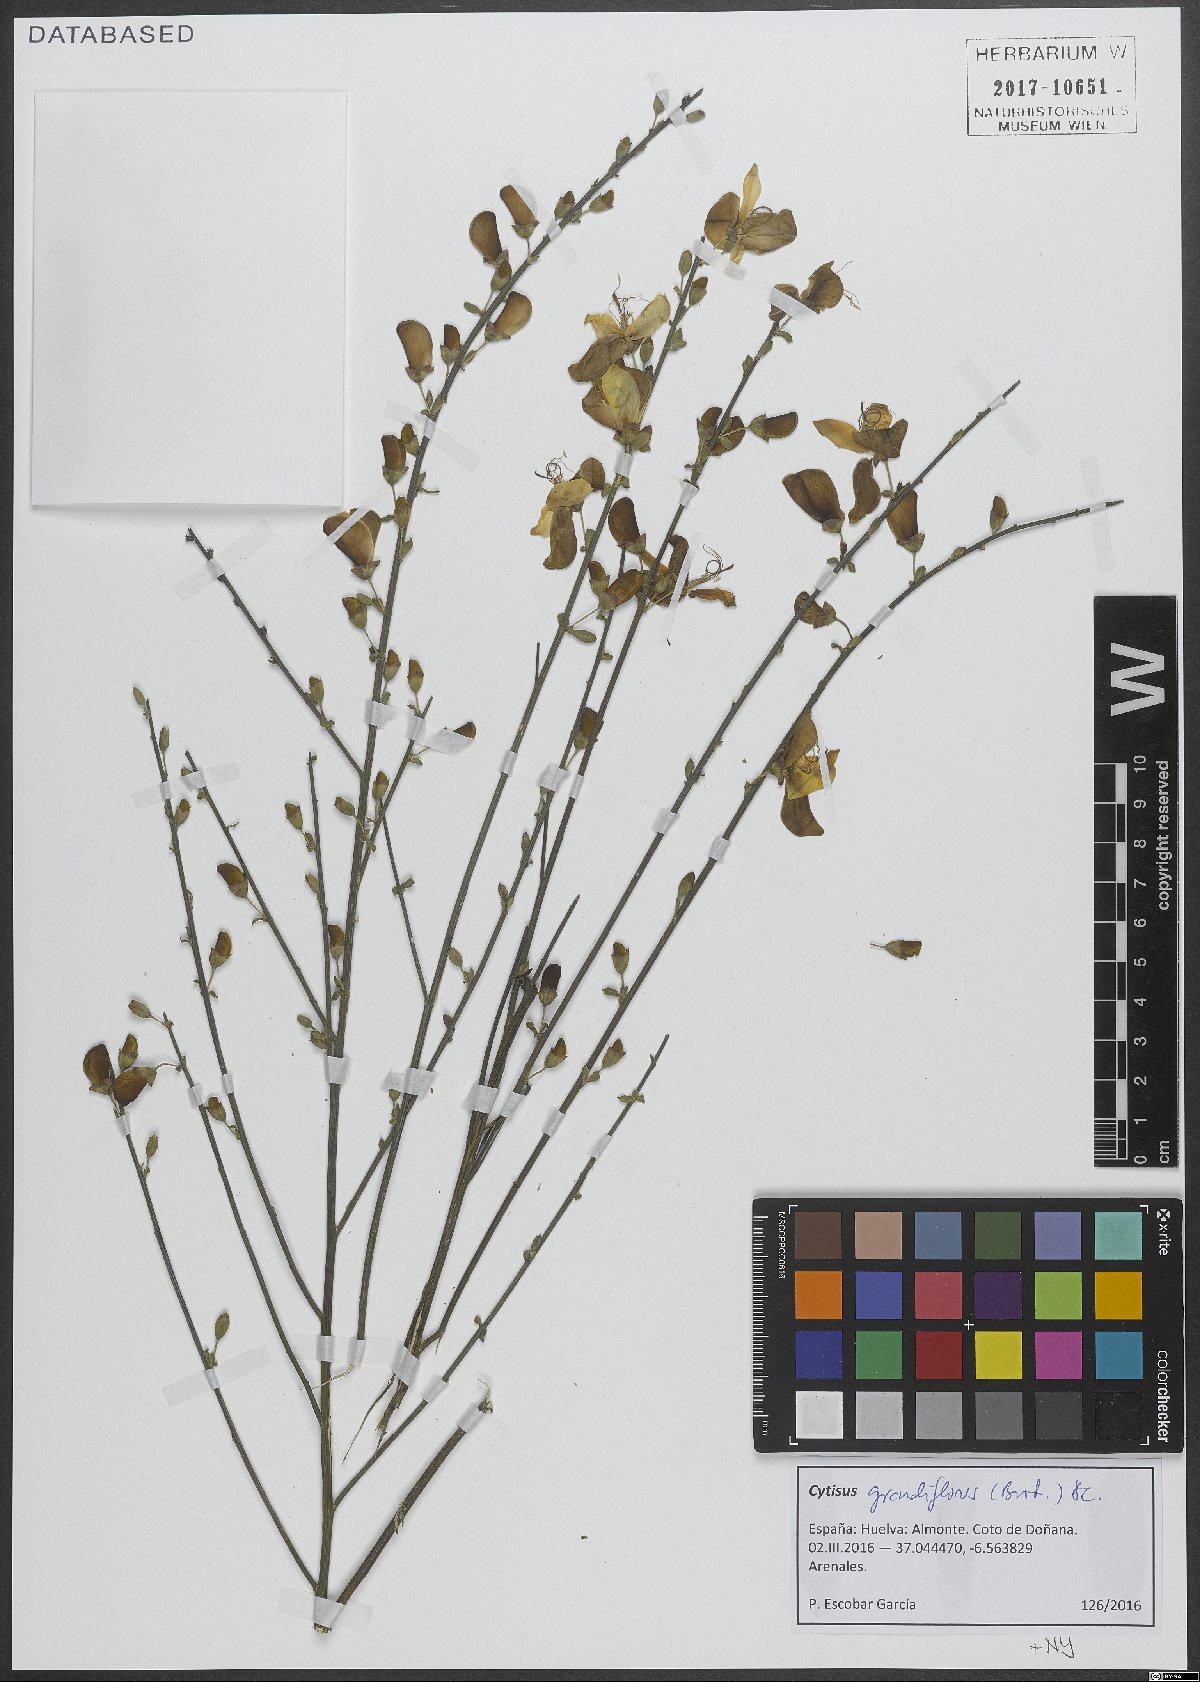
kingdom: Plantae
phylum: Tracheophyta
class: Magnoliopsida
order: Fabales
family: Fabaceae
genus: Cytisus
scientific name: Cytisus grandiflorus
